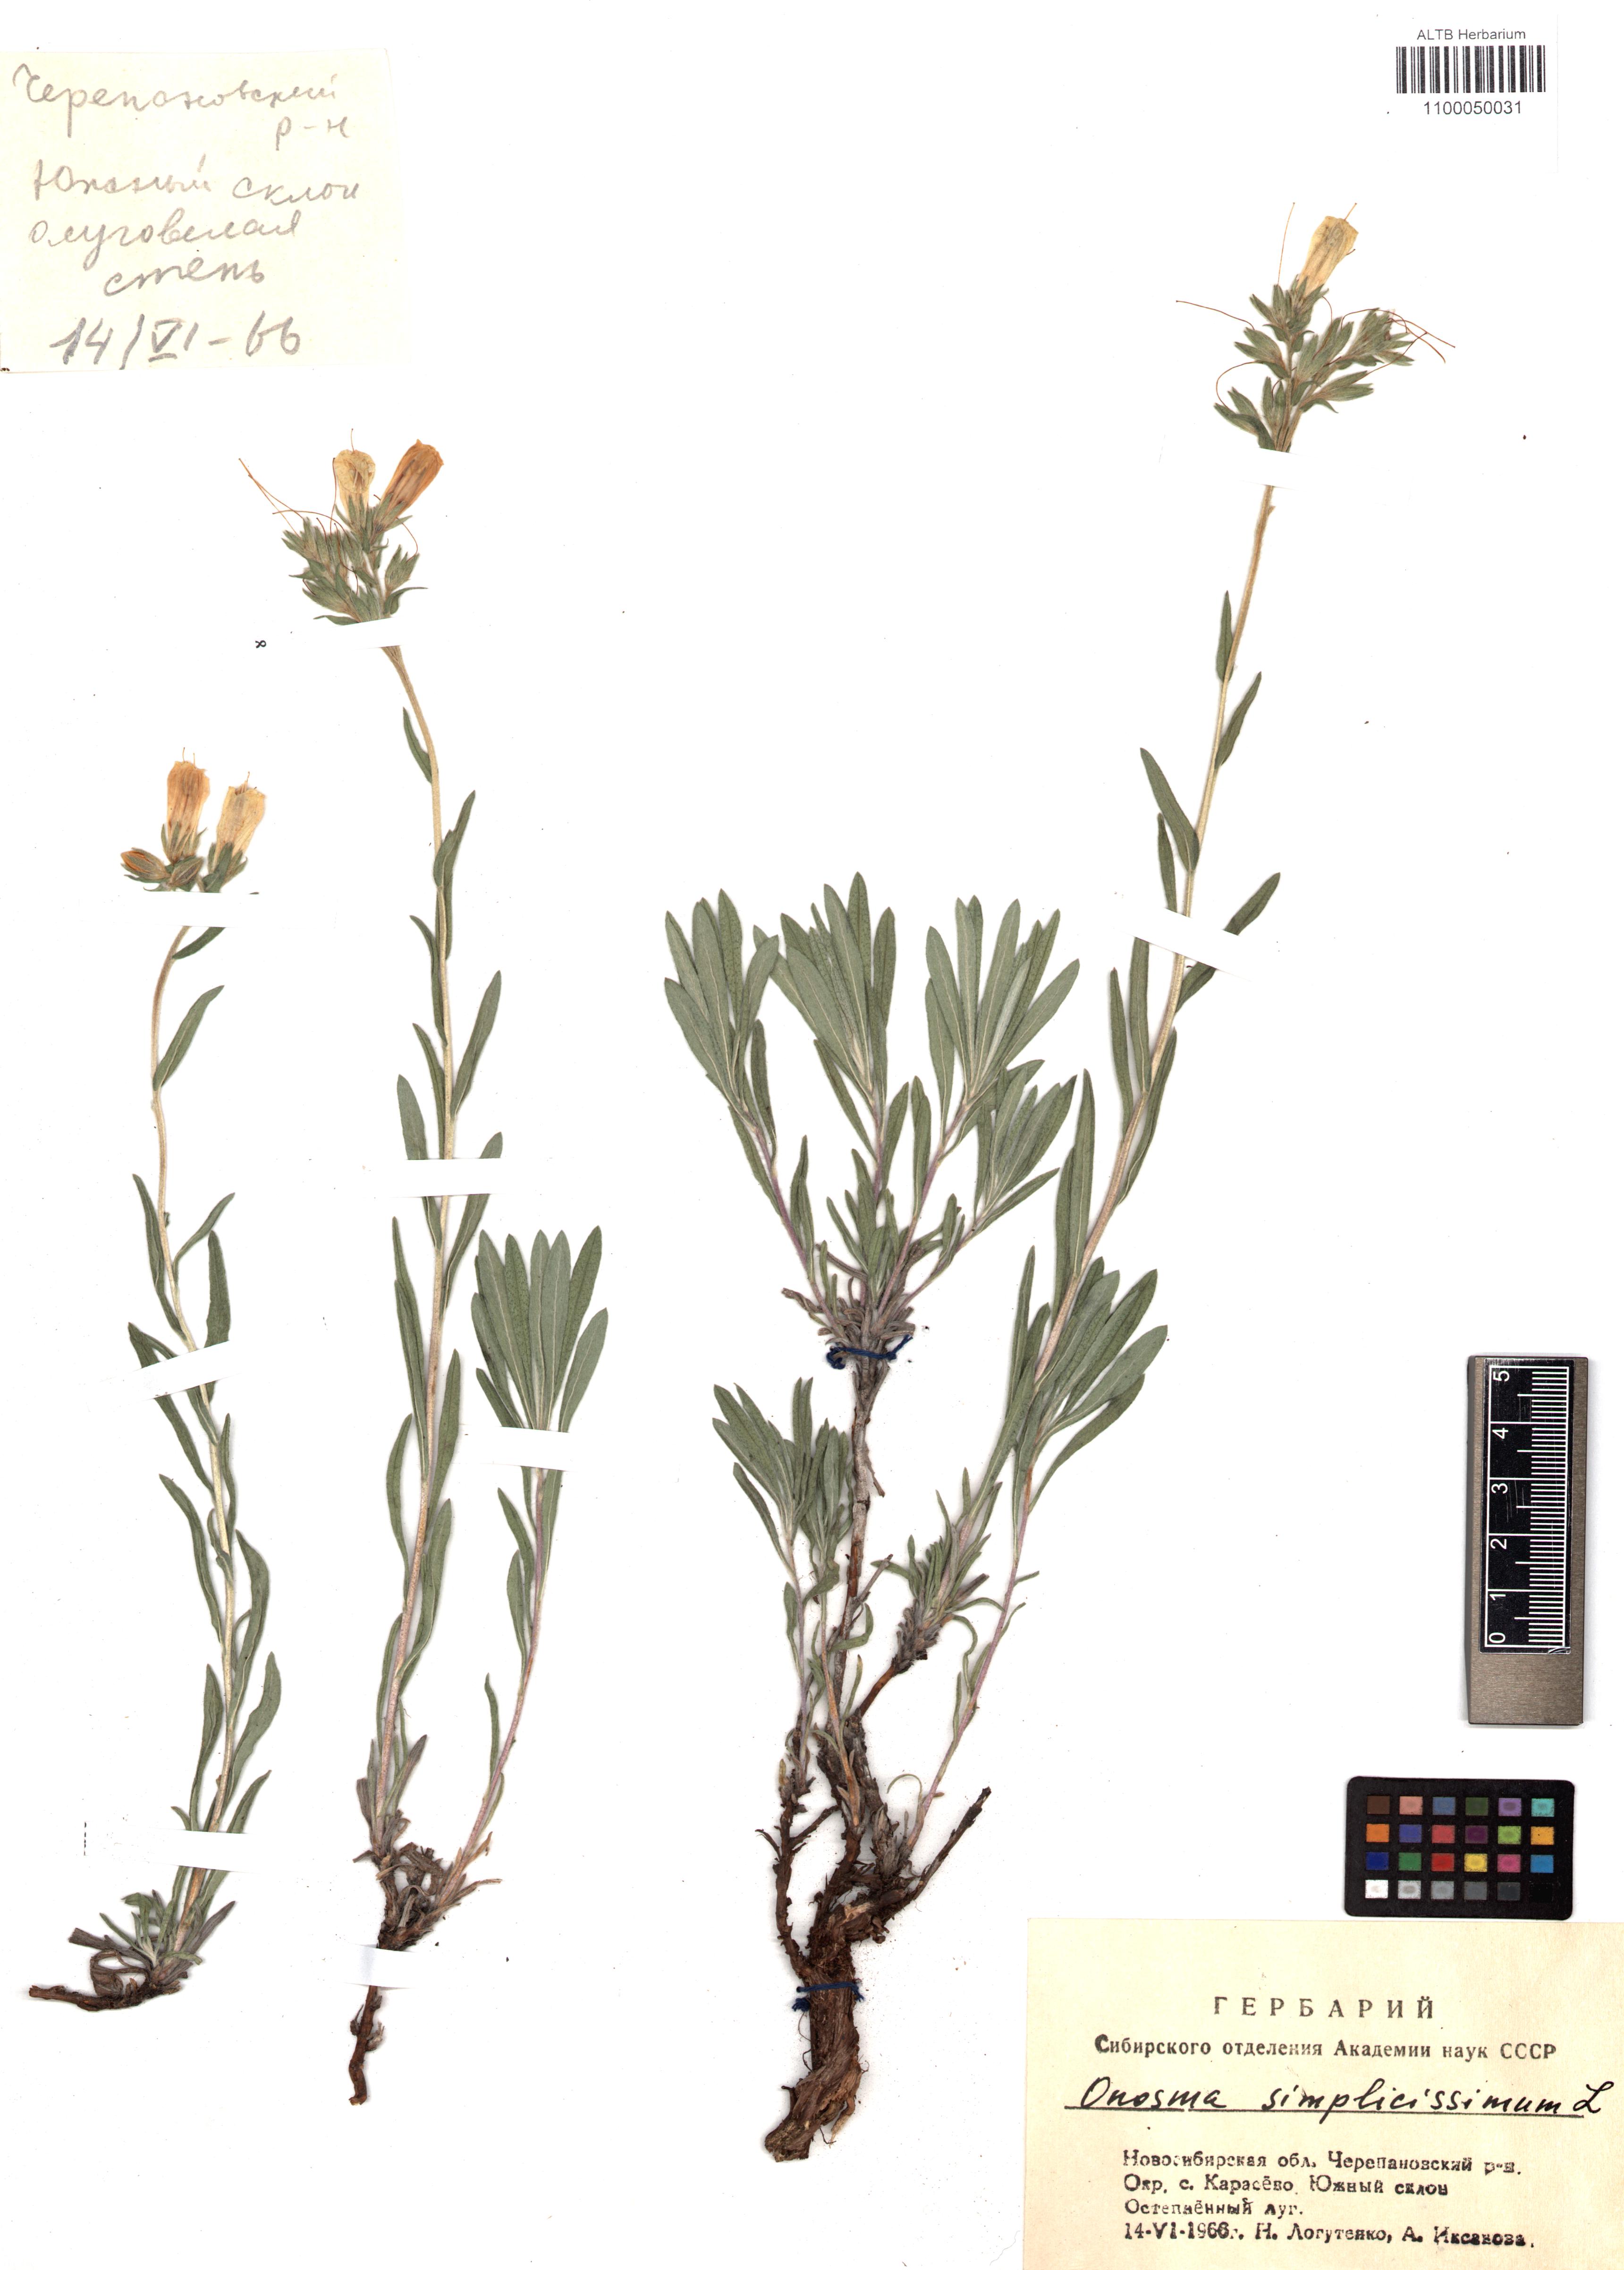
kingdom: Plantae
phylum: Tracheophyta
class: Magnoliopsida
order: Boraginales
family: Boraginaceae
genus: Onosma
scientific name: Onosma simplicissima
